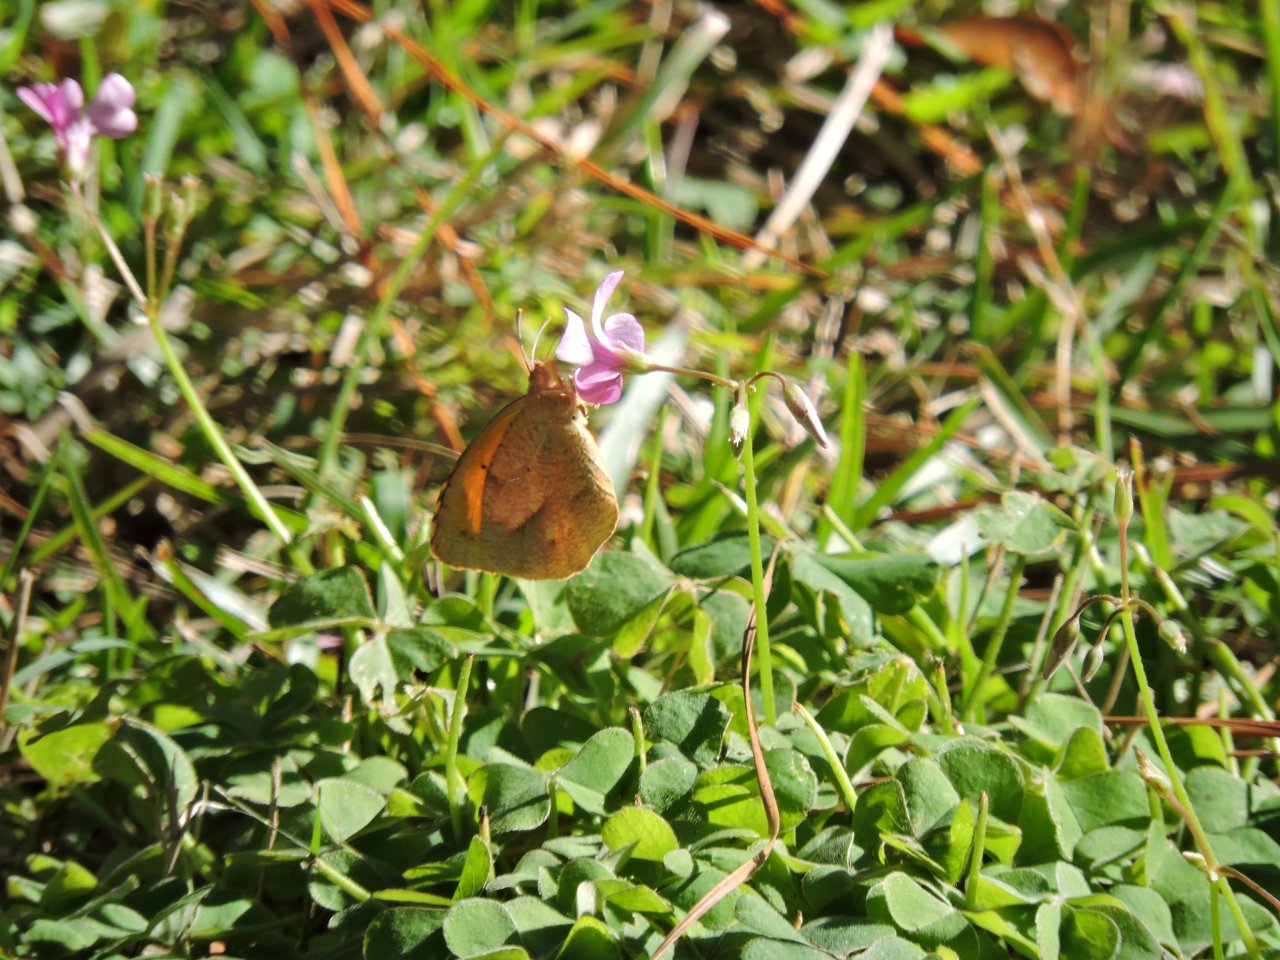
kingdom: Animalia
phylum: Arthropoda
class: Insecta
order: Lepidoptera
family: Pieridae
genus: Abaeis
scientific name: Abaeis nicippe
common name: Sleepy Orange
